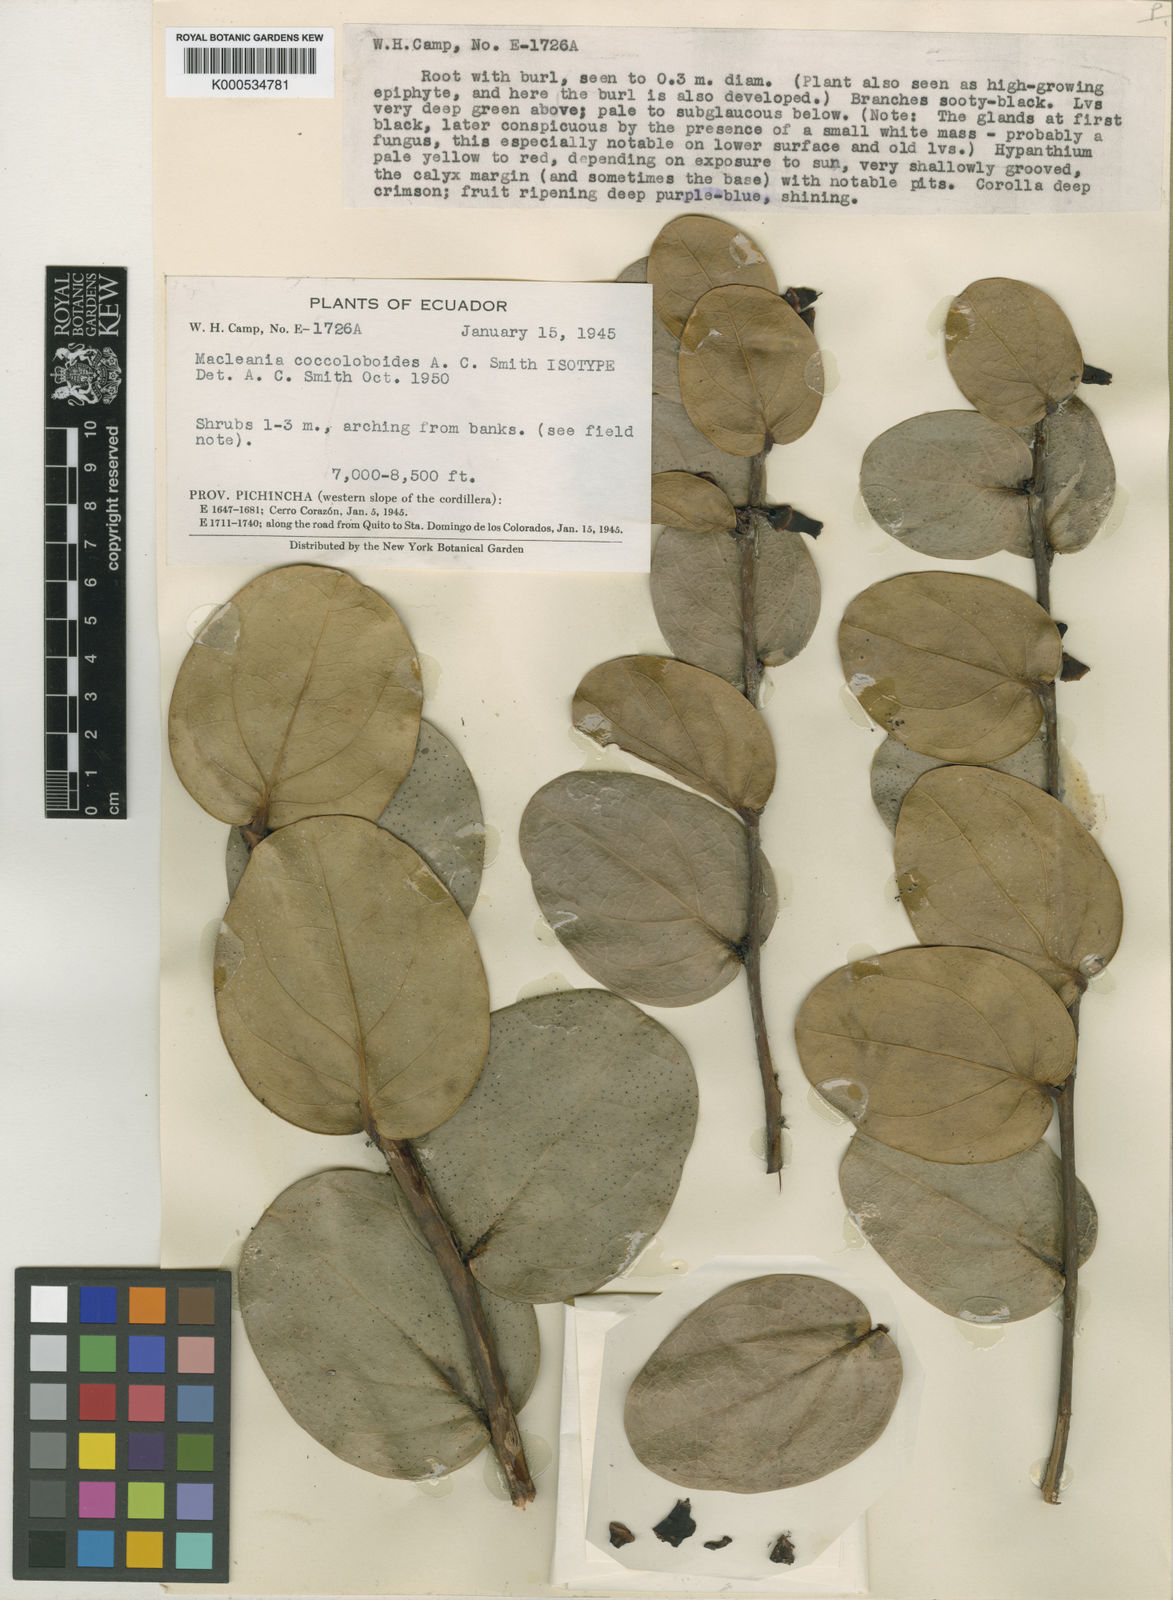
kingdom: Plantae
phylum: Tracheophyta
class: Magnoliopsida
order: Ericales
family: Ericaceae
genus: Macleania
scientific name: Macleania coccoloboides
